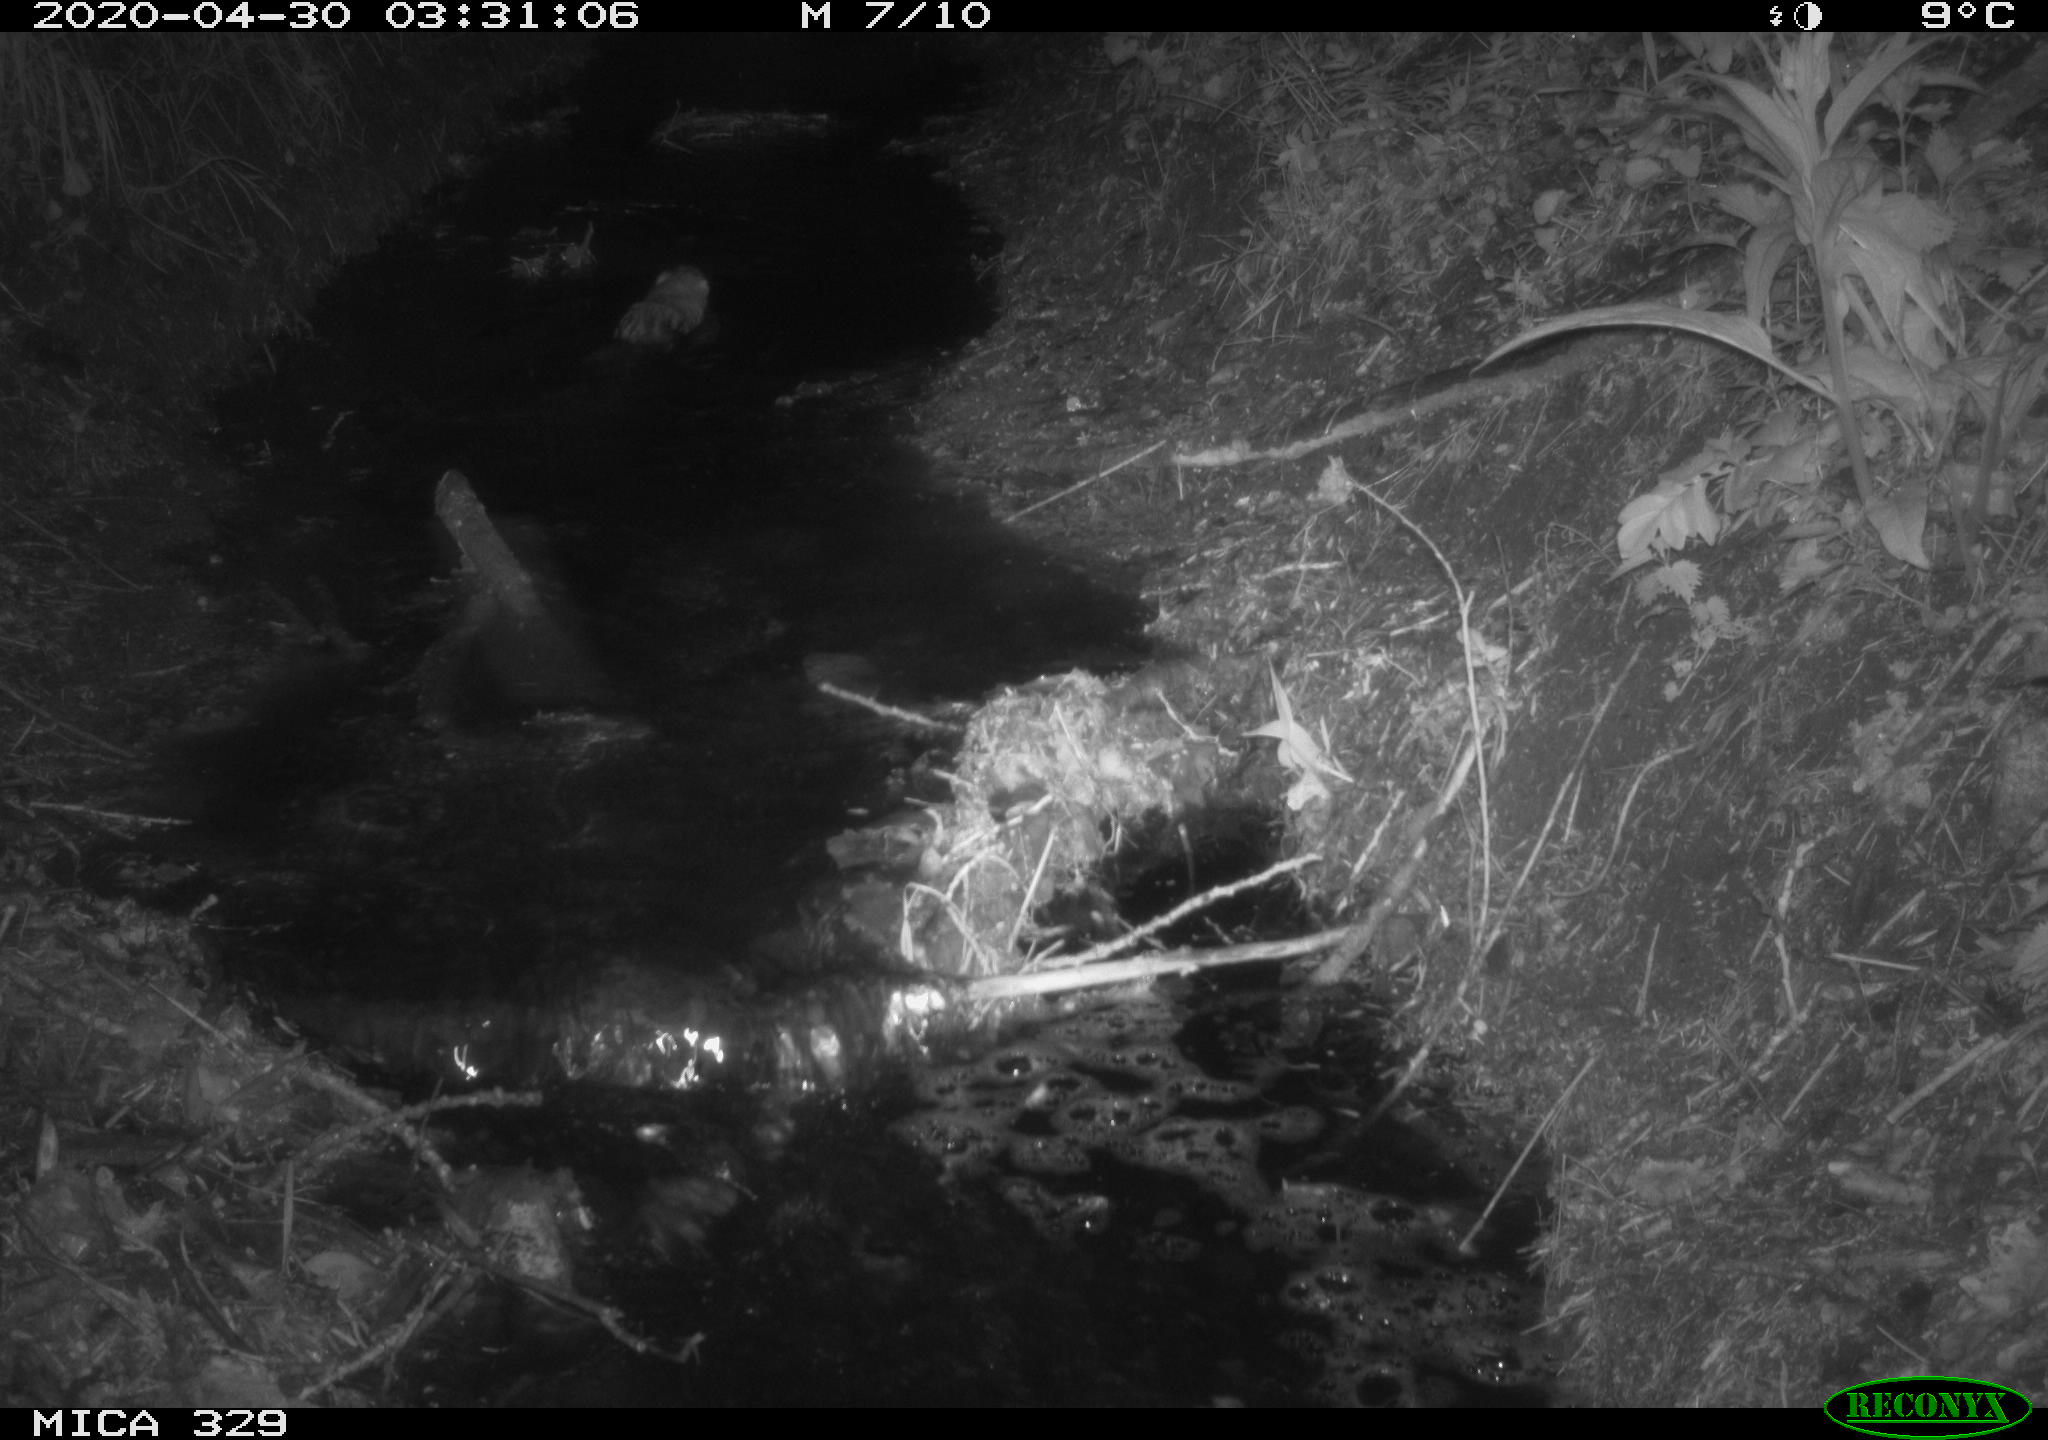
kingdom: Animalia
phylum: Chordata
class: Mammalia
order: Rodentia
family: Cricetidae
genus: Ondatra
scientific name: Ondatra zibethicus
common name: Muskrat
